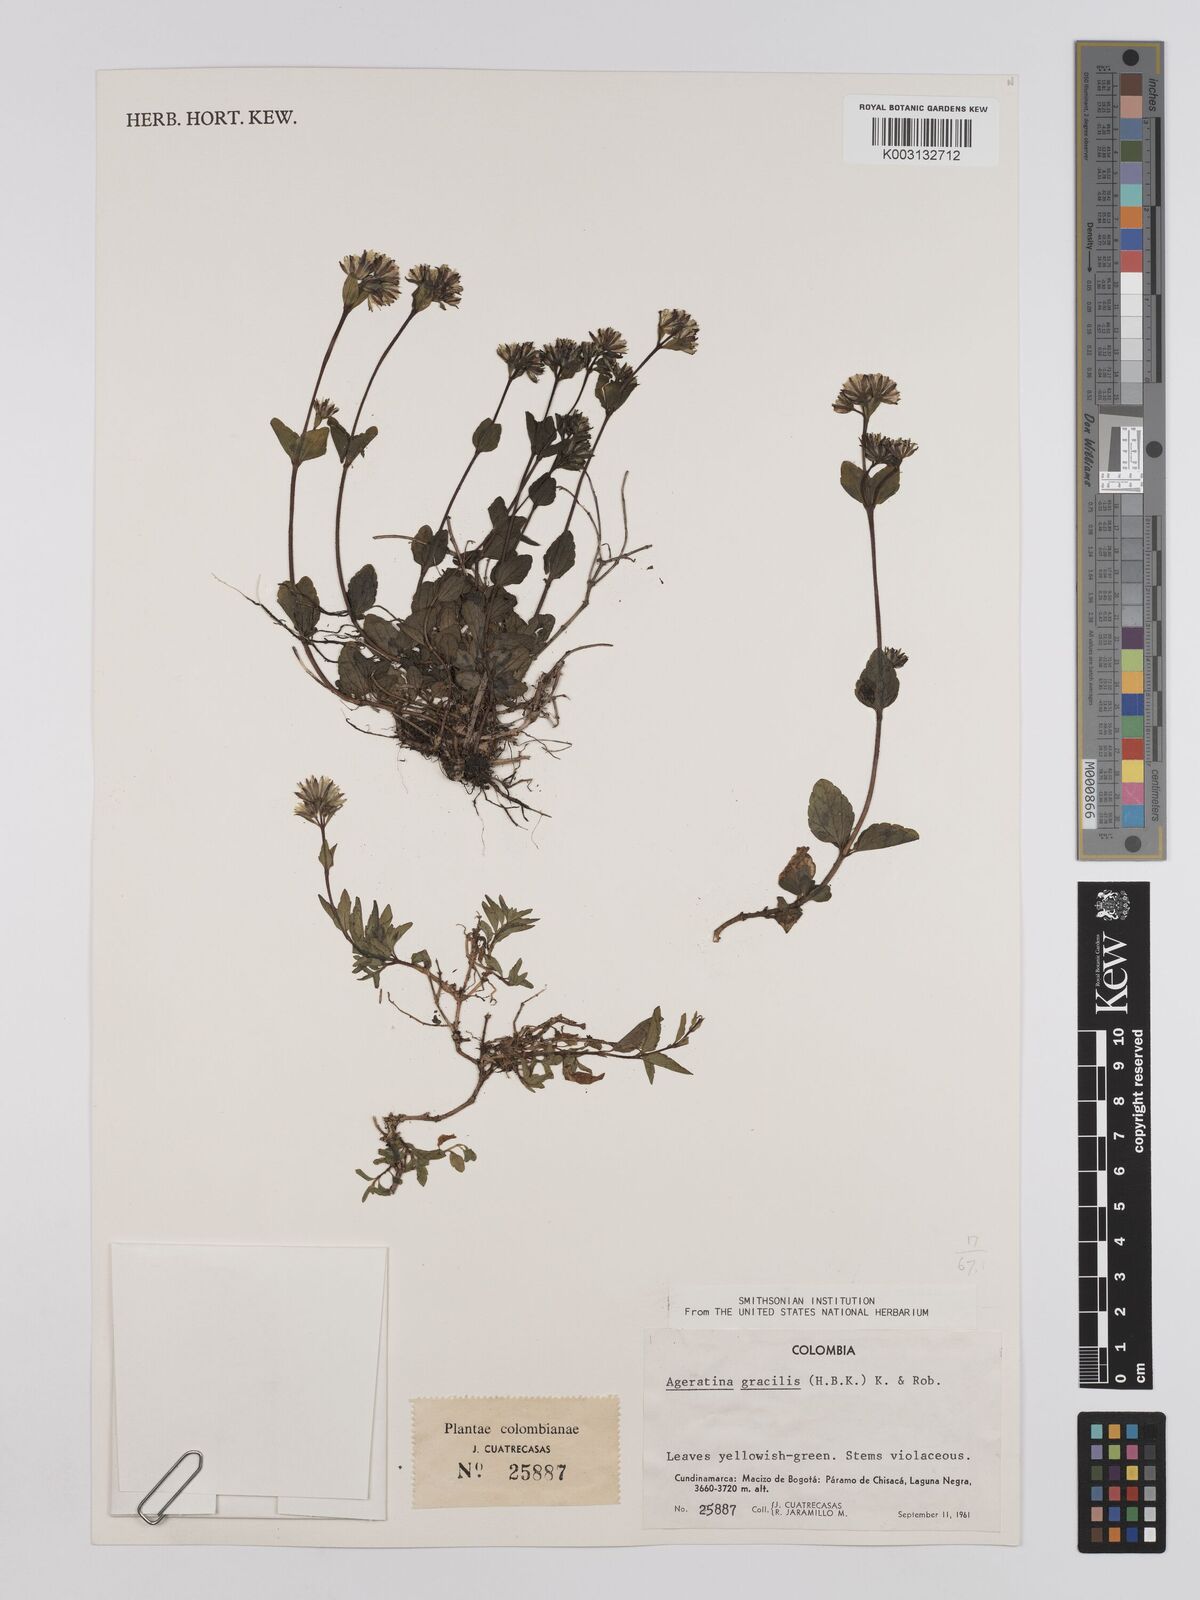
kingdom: Plantae
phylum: Tracheophyta
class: Magnoliopsida
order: Asterales
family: Asteraceae
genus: Ageratina
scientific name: Ageratina gracilis
